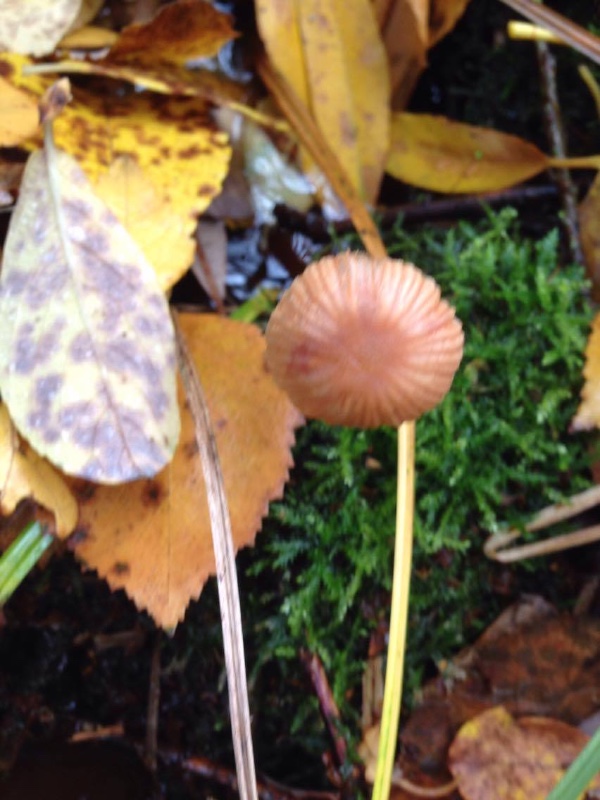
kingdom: Fungi
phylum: Basidiomycota
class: Agaricomycetes
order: Agaricales
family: Hydnangiaceae
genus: Laccaria
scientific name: Laccaria laccata
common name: rød ametysthat
